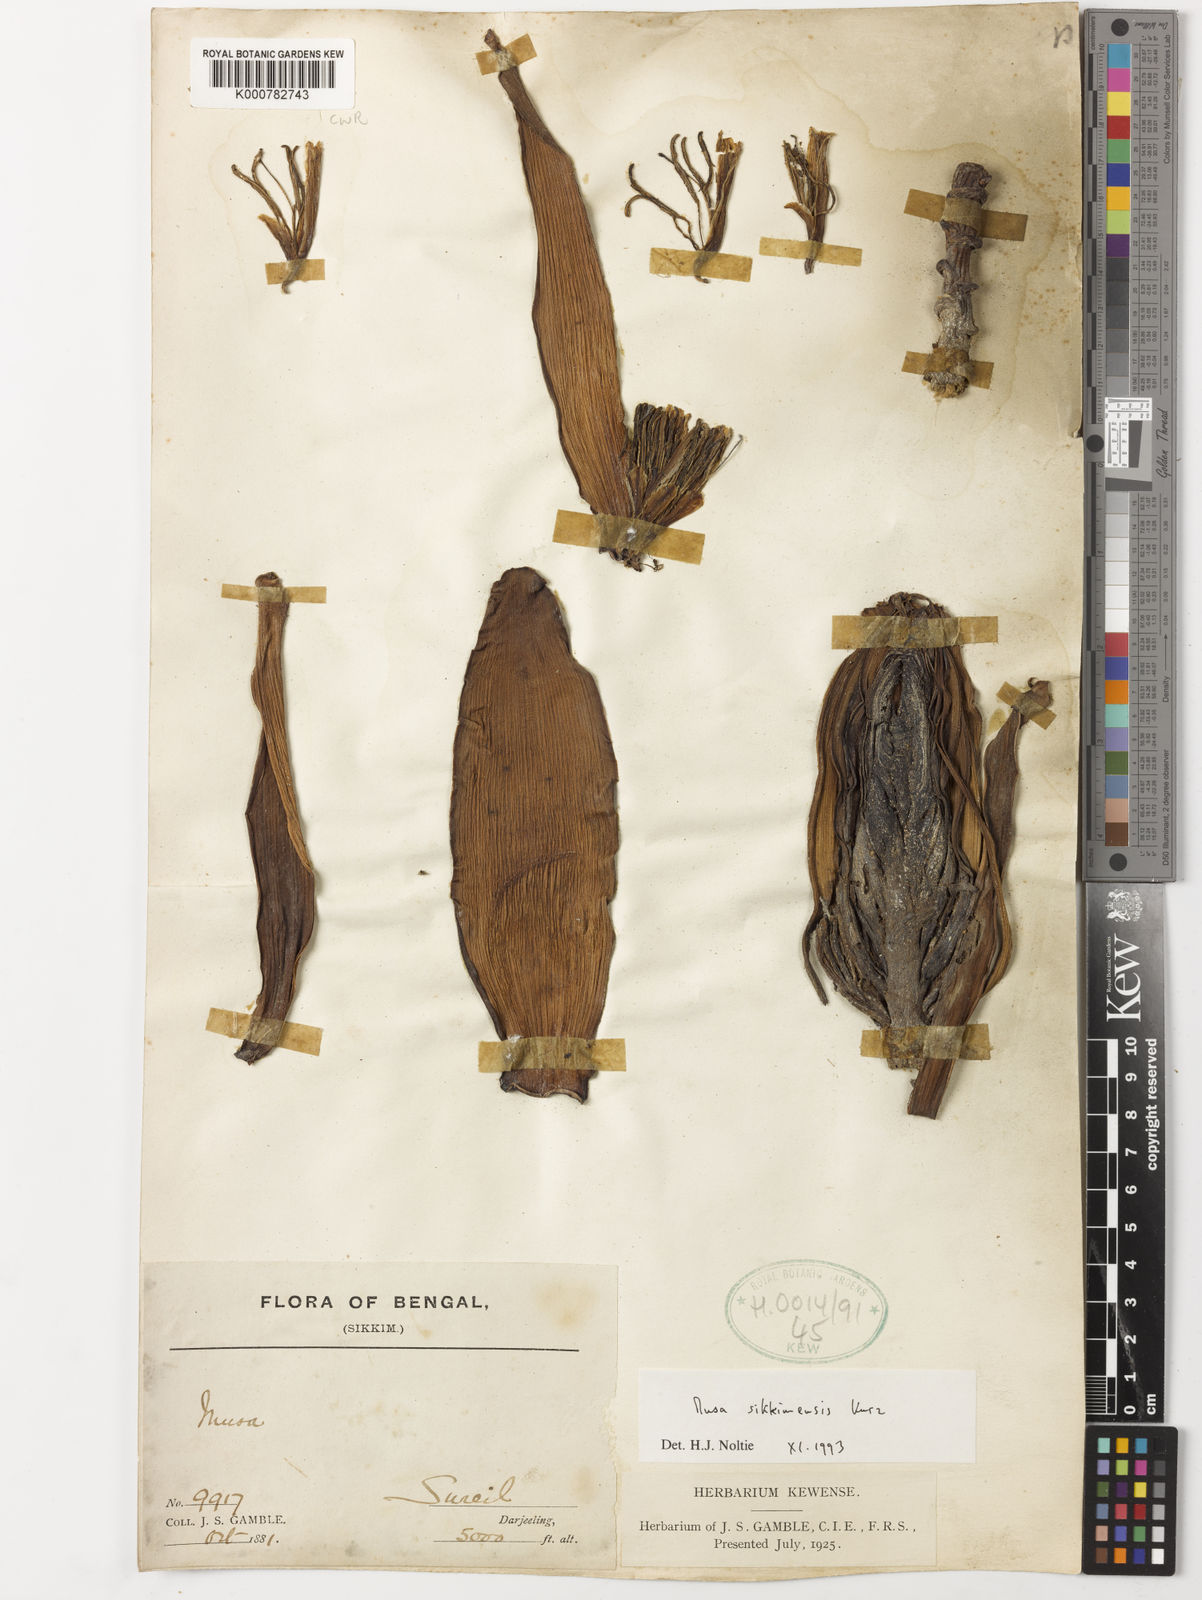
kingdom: Plantae
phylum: Tracheophyta
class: Liliopsida
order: Zingiberales
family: Musaceae
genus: Musa
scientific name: Musa sikkimensis
